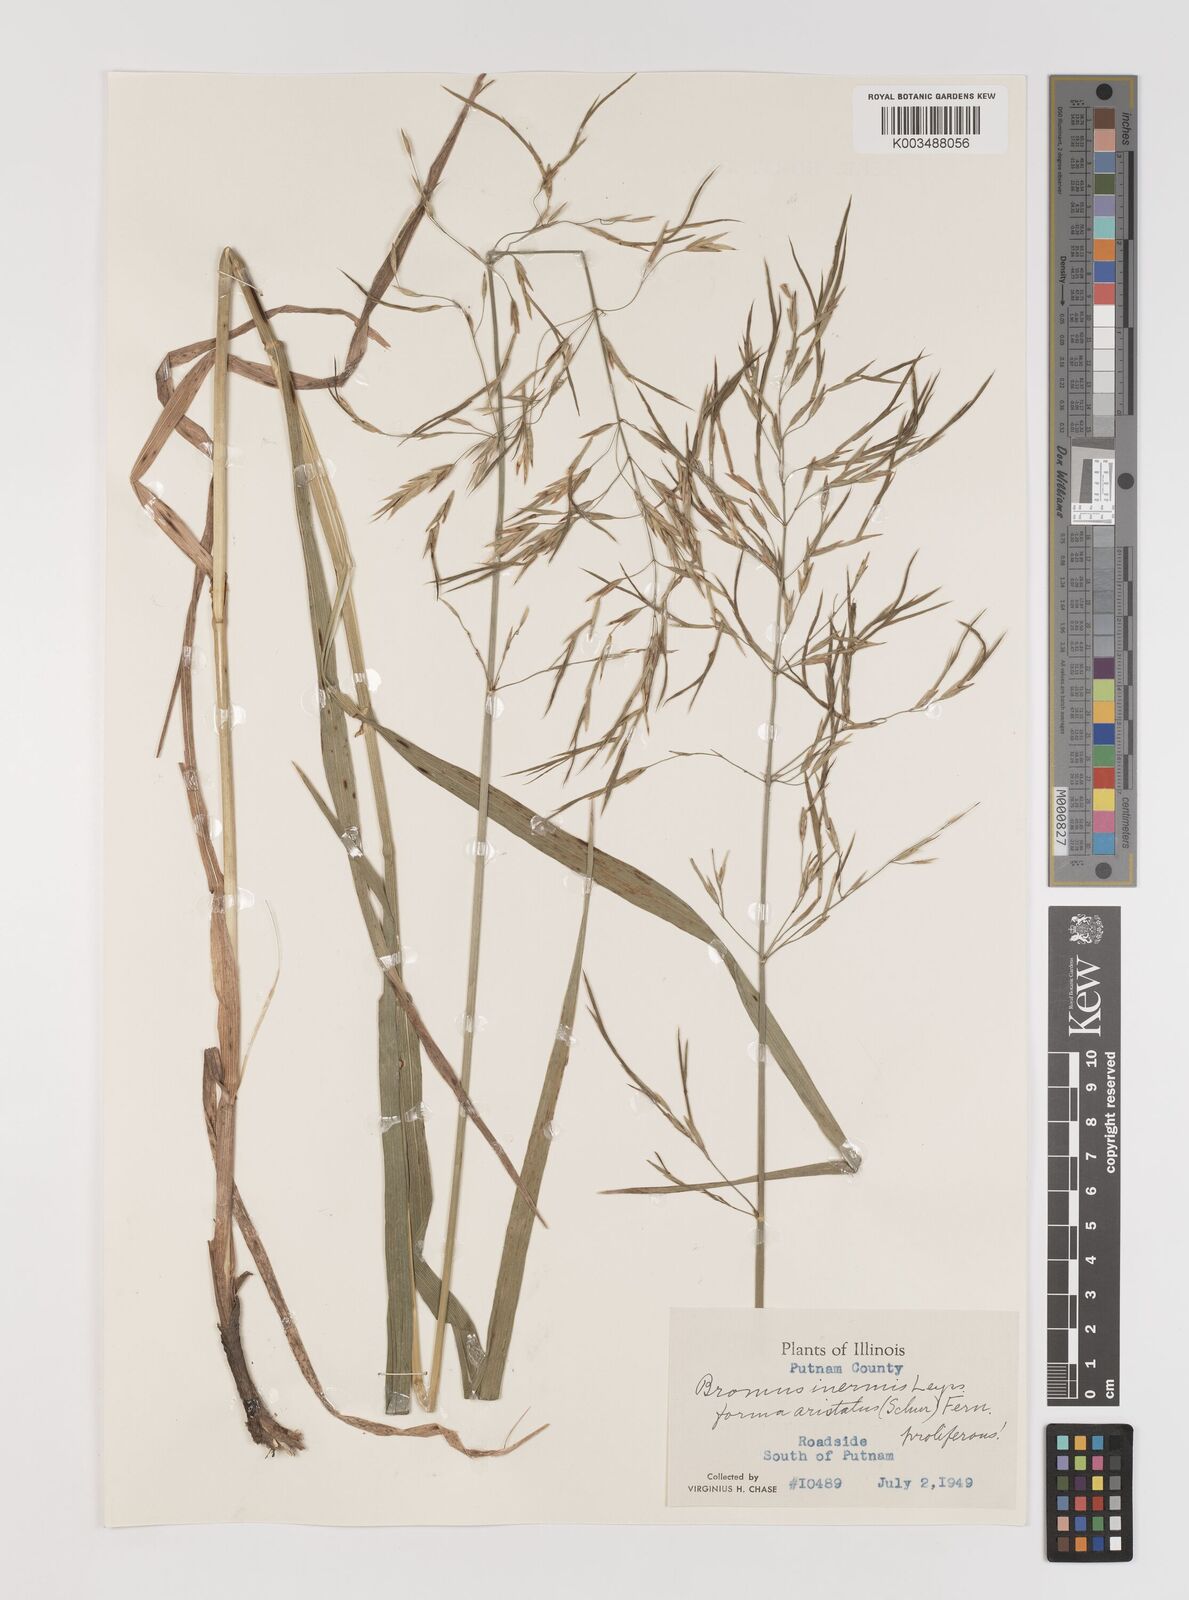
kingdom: Plantae
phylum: Tracheophyta
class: Liliopsida
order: Poales
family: Poaceae
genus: Bromus
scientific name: Bromus inermis
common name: Smooth brome
